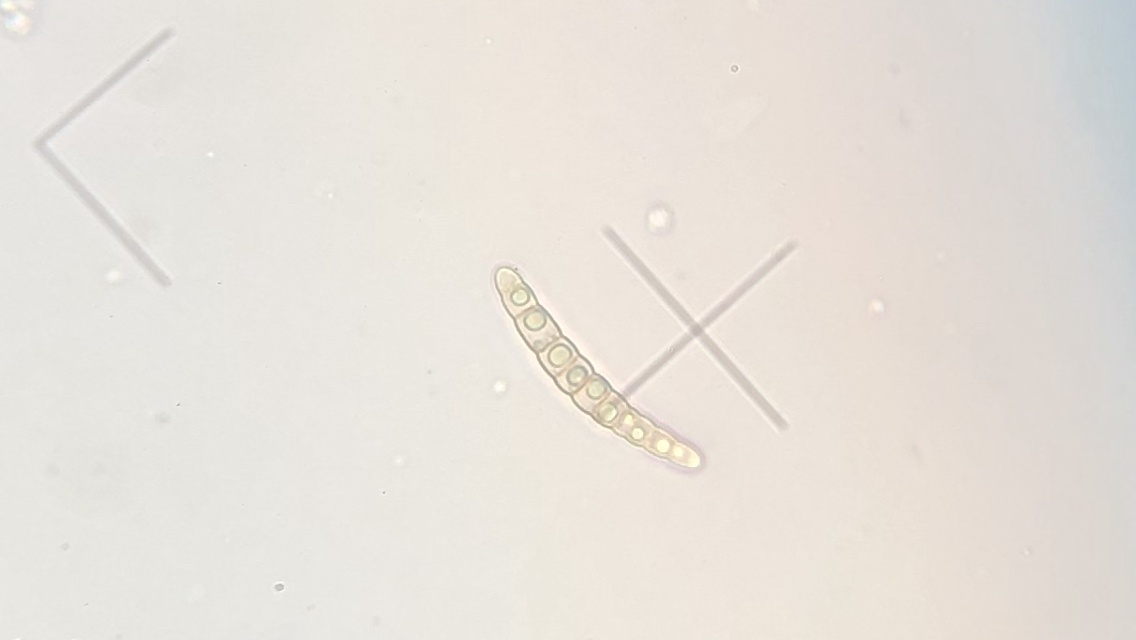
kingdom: Fungi
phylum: Ascomycota
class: Dothideomycetes
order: Pleosporales
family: Leptosphaeriaceae
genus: Leptosphaeria
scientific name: Leptosphaeria acuta
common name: spids kulkegle
